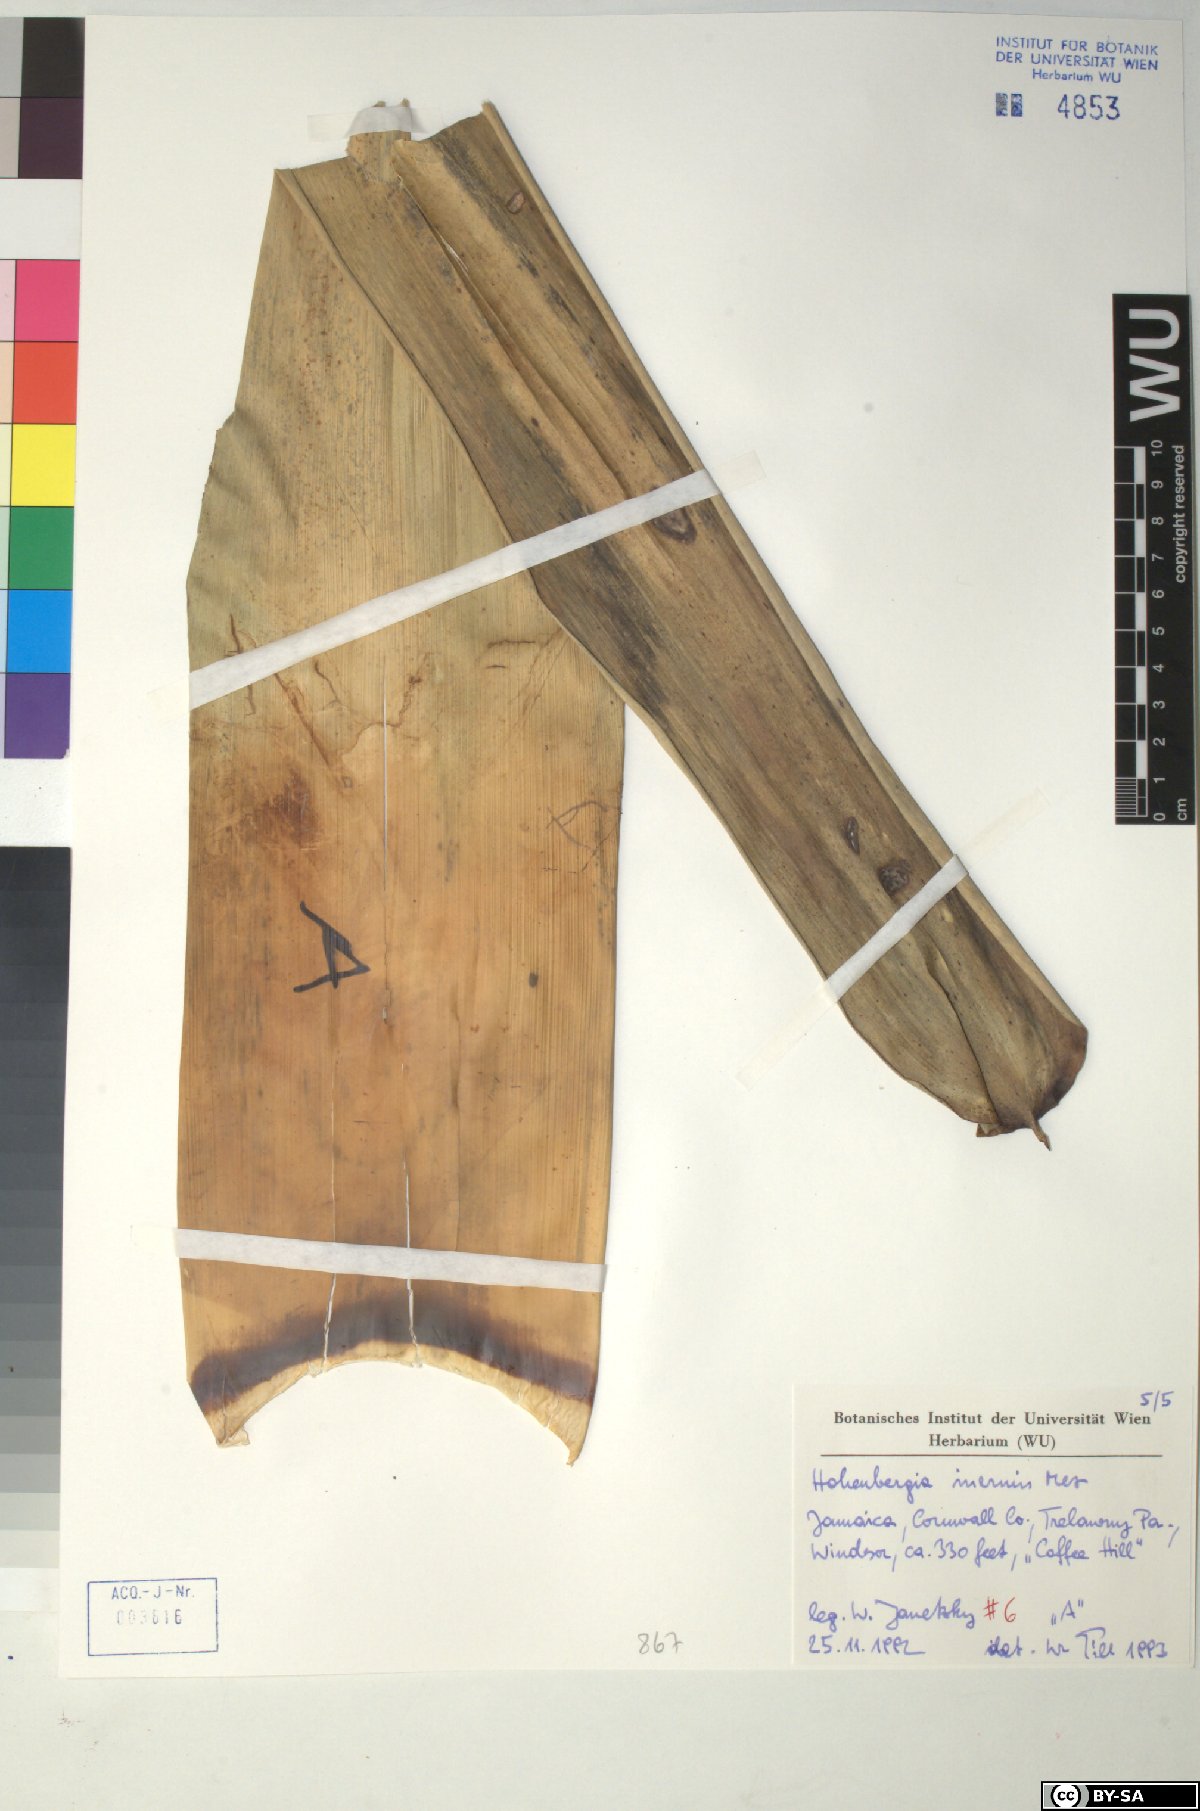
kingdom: Plantae
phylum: Tracheophyta
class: Liliopsida
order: Poales
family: Bromeliaceae
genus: Wittmackia
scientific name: Wittmackia inermis
